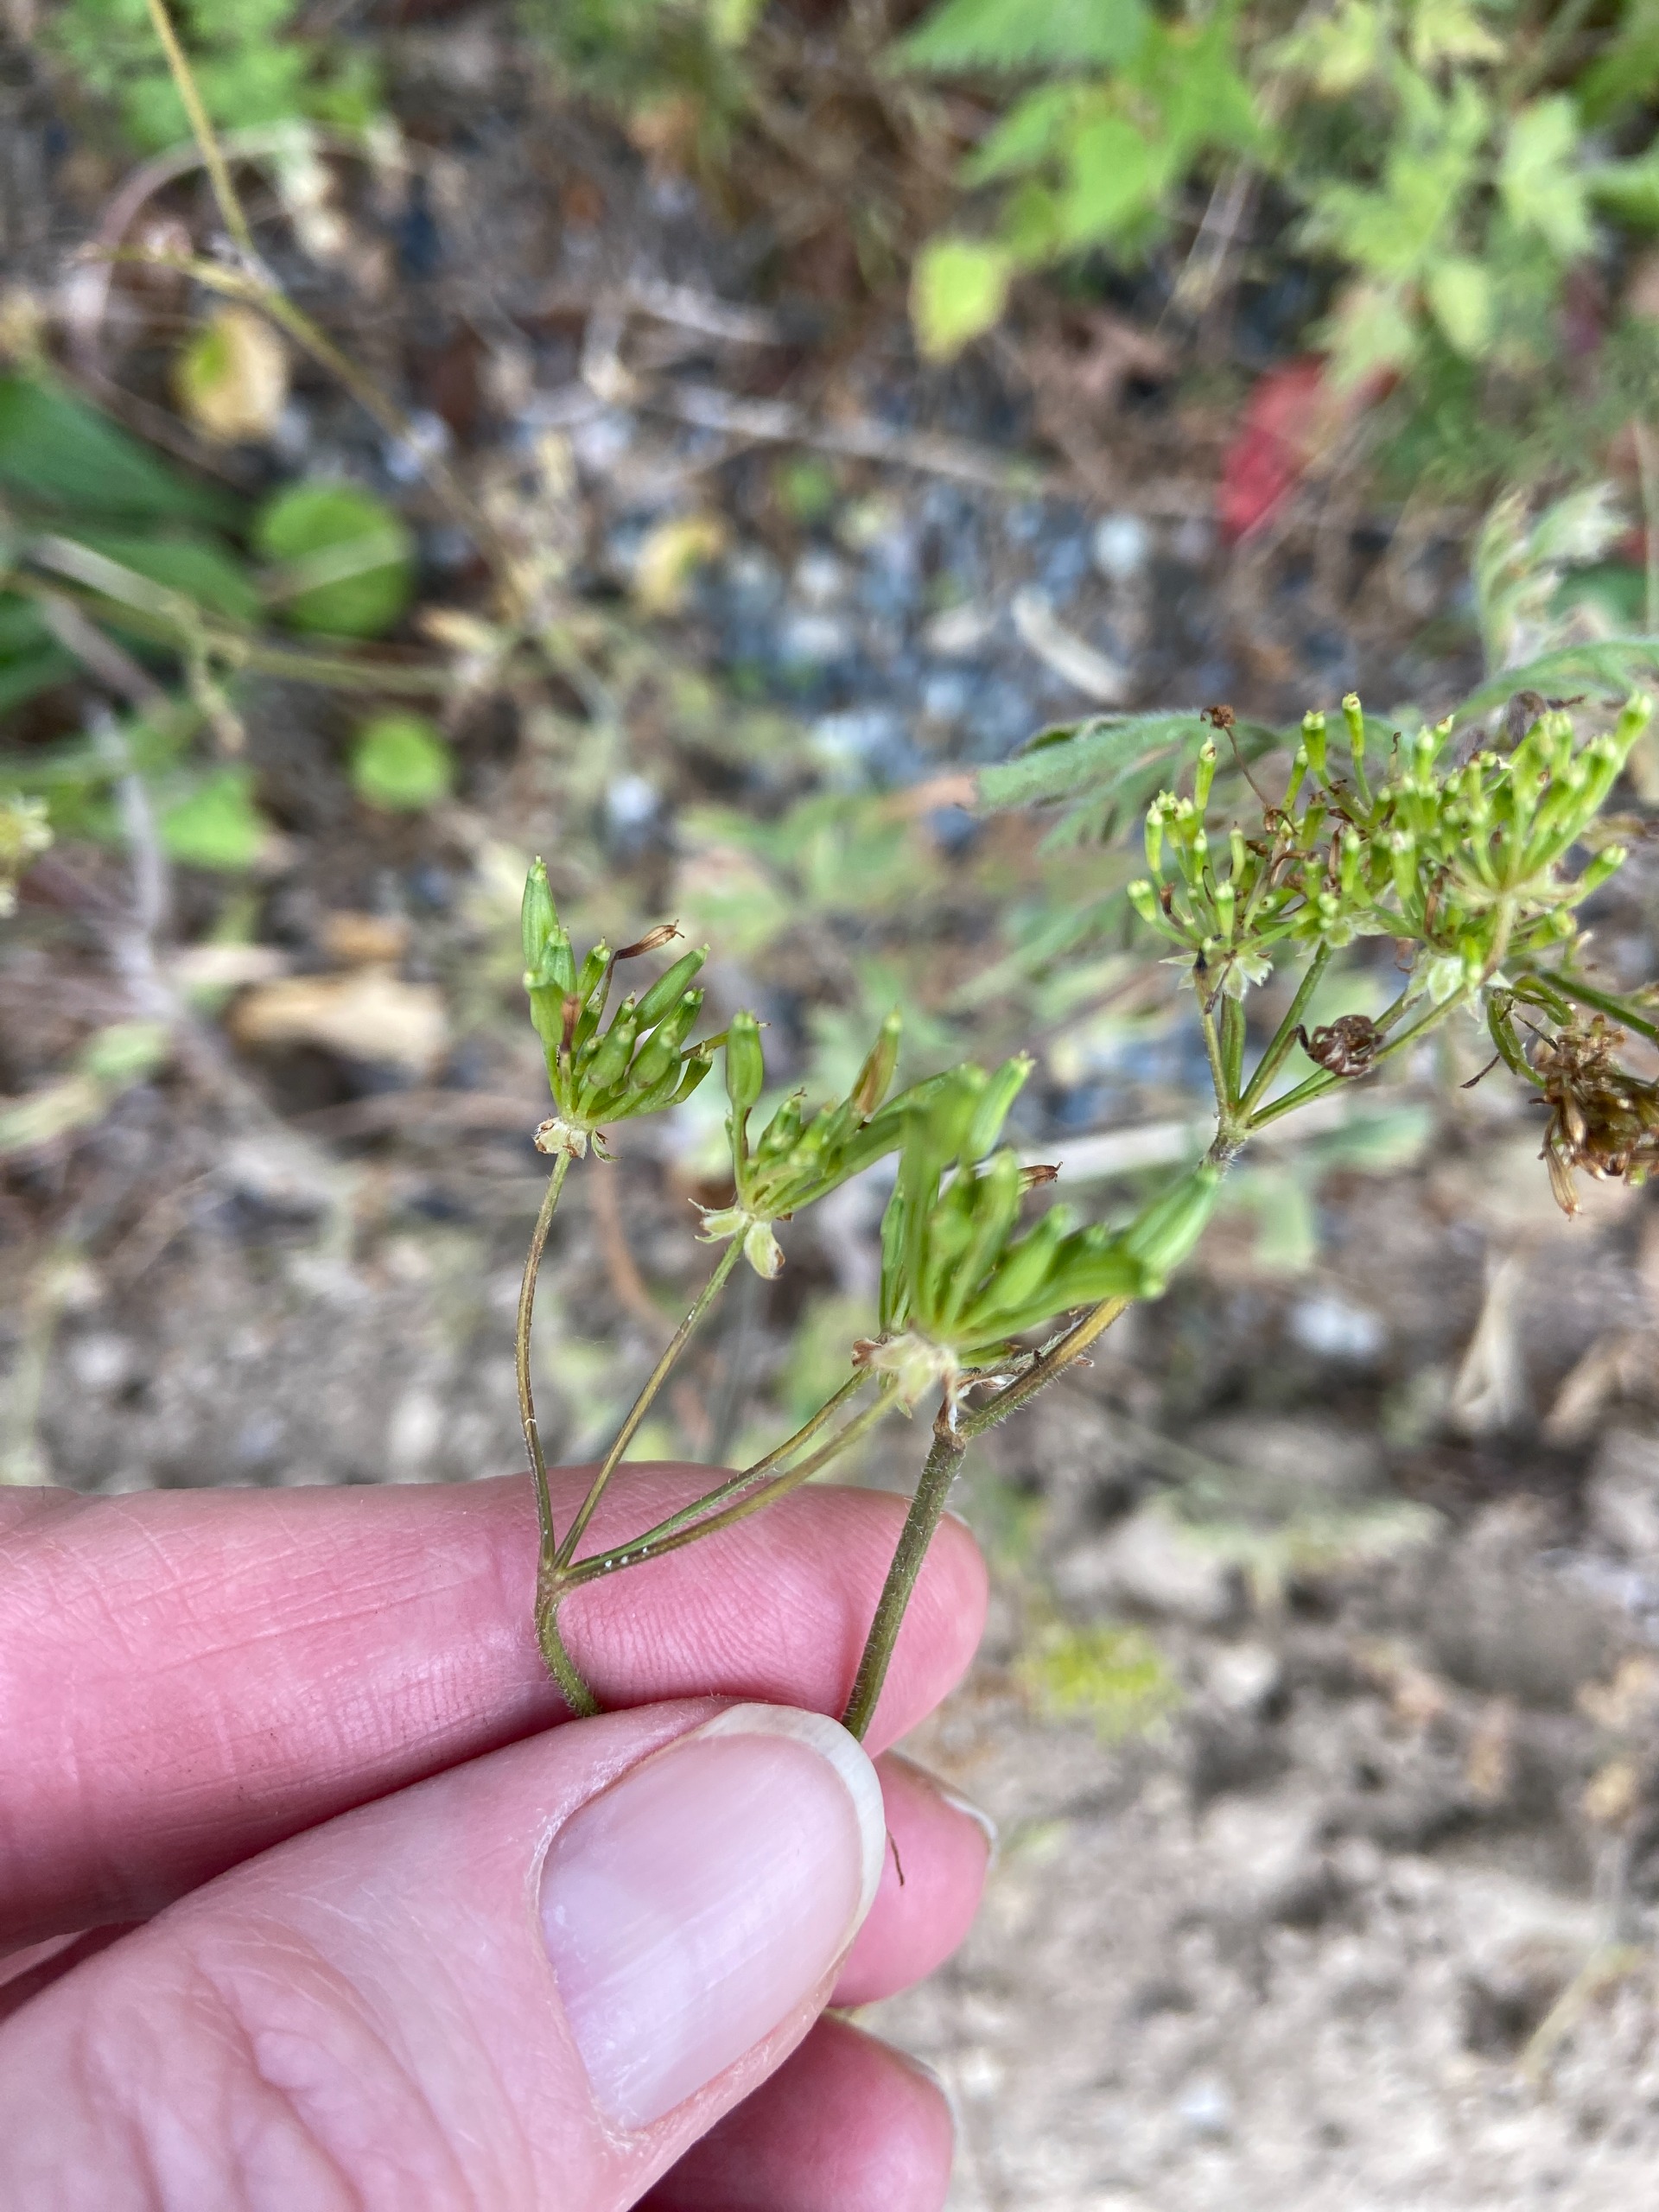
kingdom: Plantae
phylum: Tracheophyta
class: Magnoliopsida
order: Apiales
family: Apiaceae
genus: Chaerophyllum
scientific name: Chaerophyllum temulum
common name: Almindelig hulsvøb
